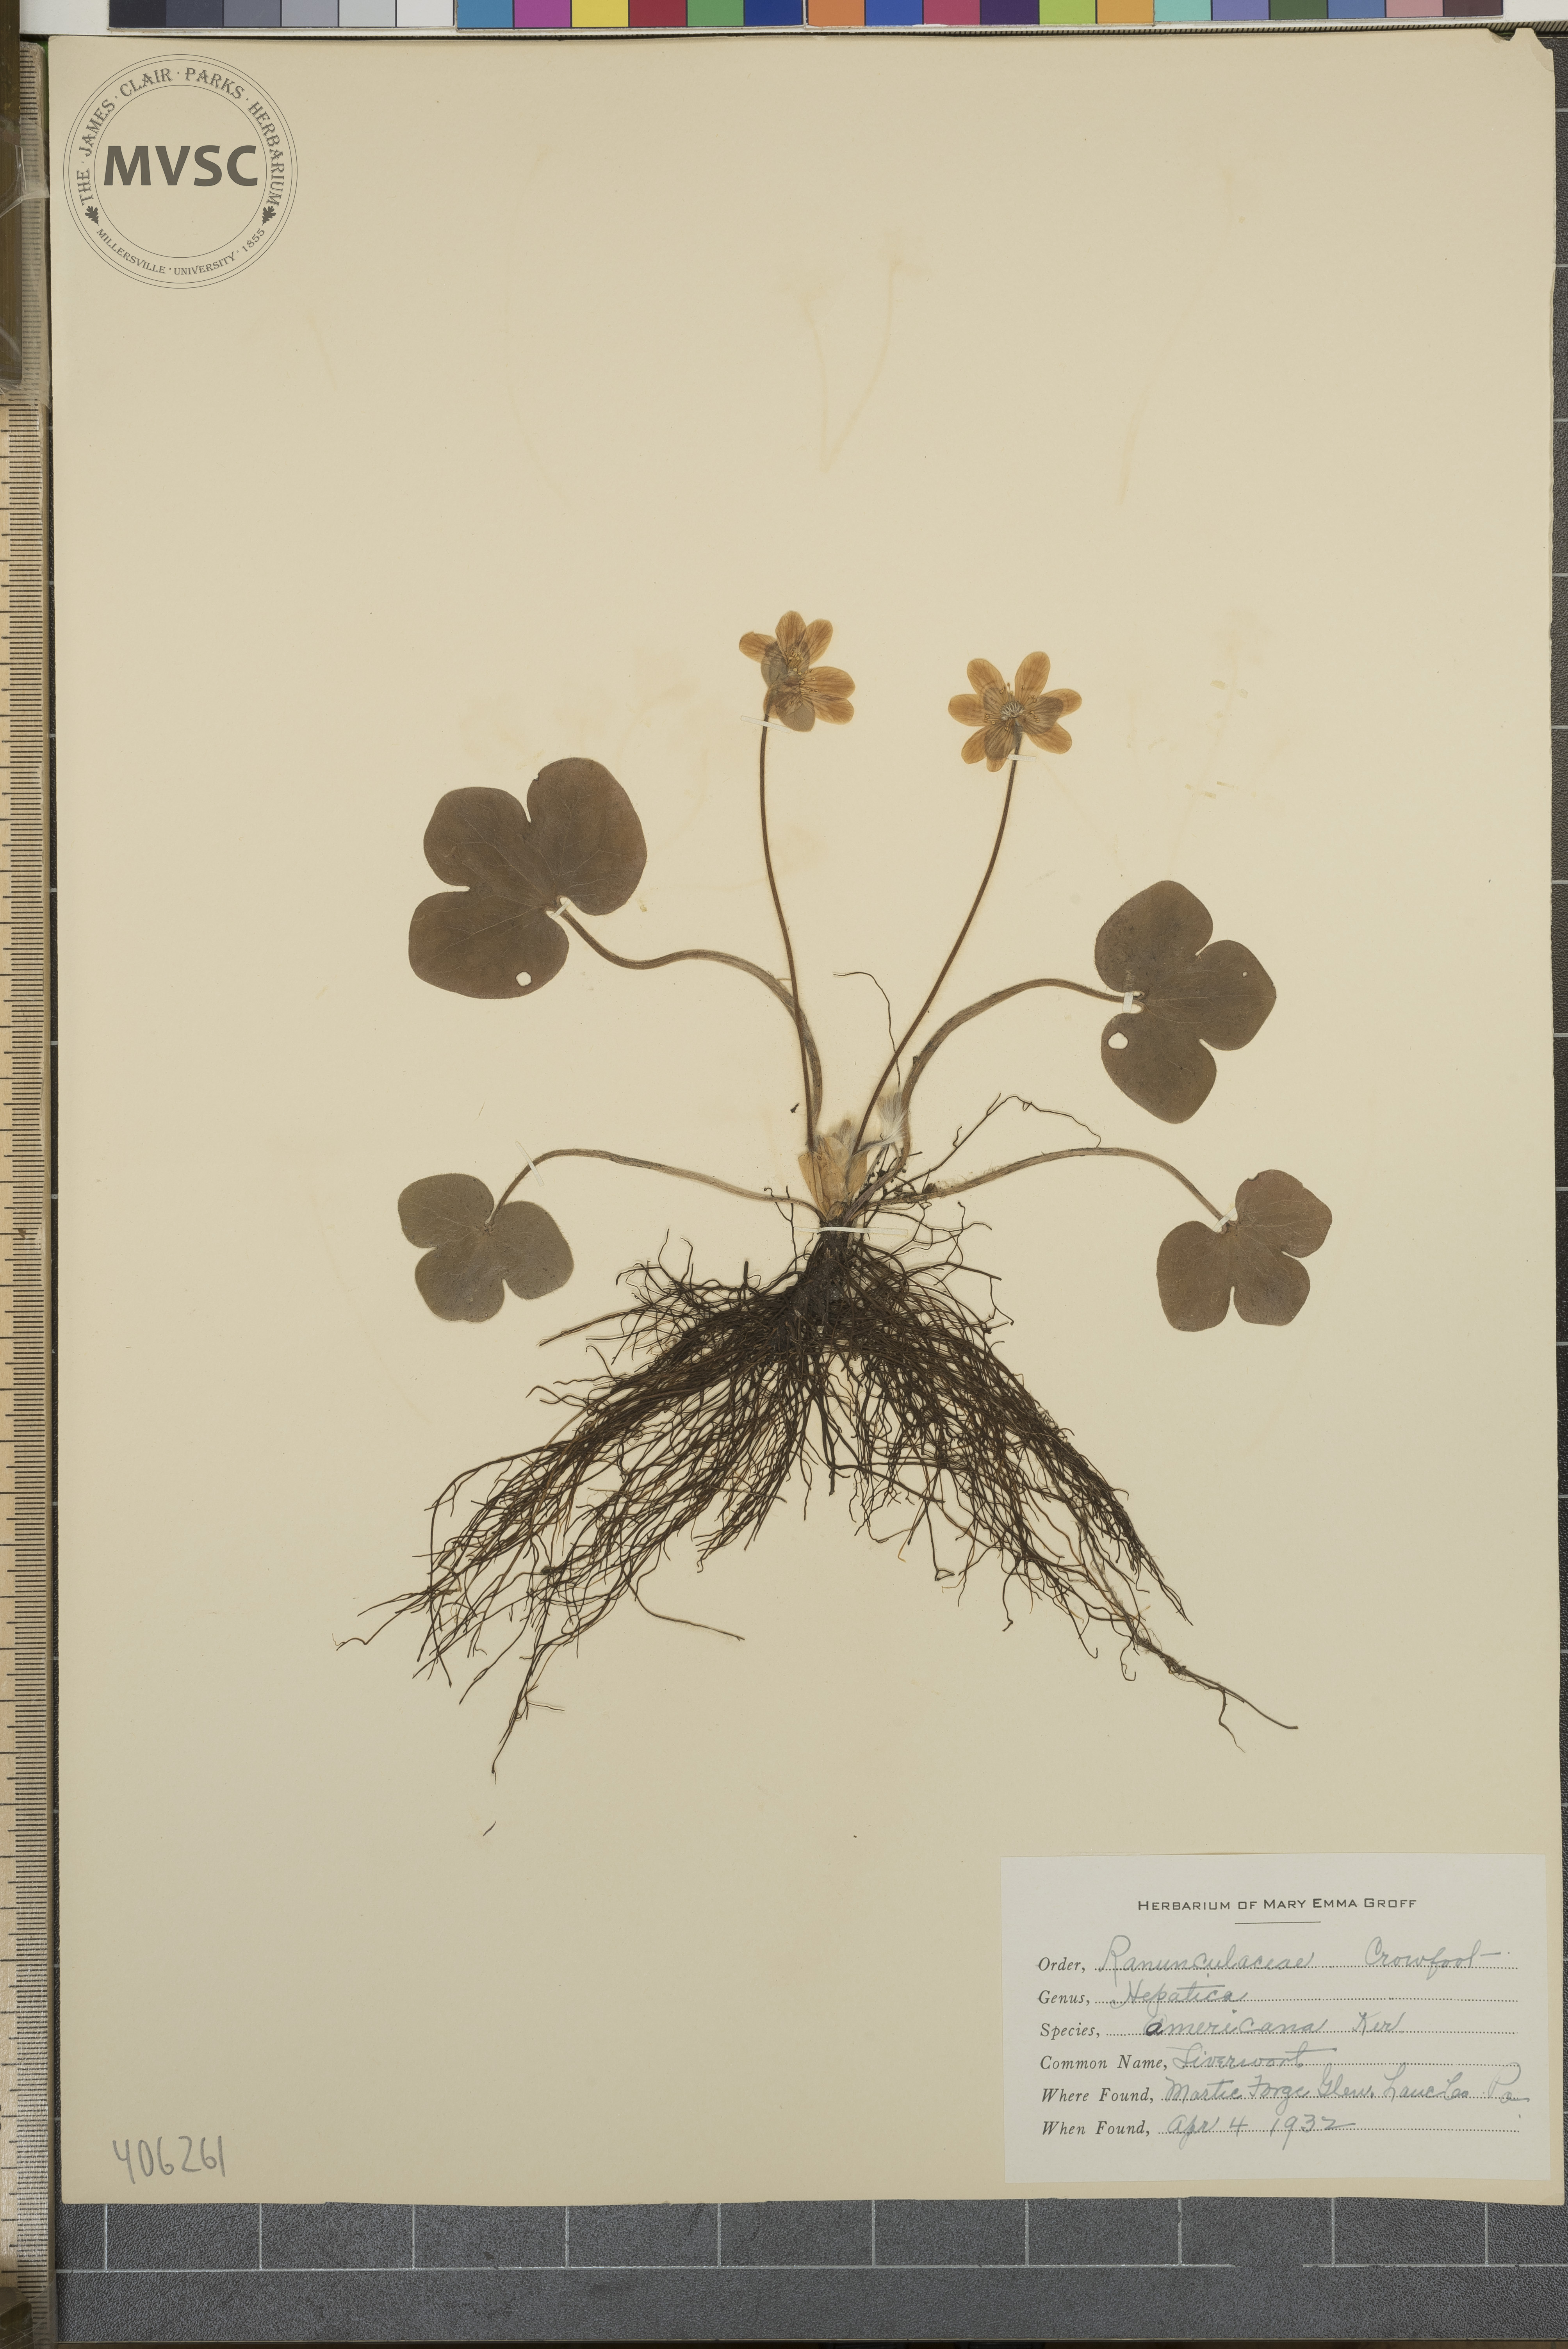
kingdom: Plantae
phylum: Tracheophyta
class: Magnoliopsida
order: Ranunculales
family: Ranunculaceae
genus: Hepatica
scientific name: Hepatica americana
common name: Liverwort
